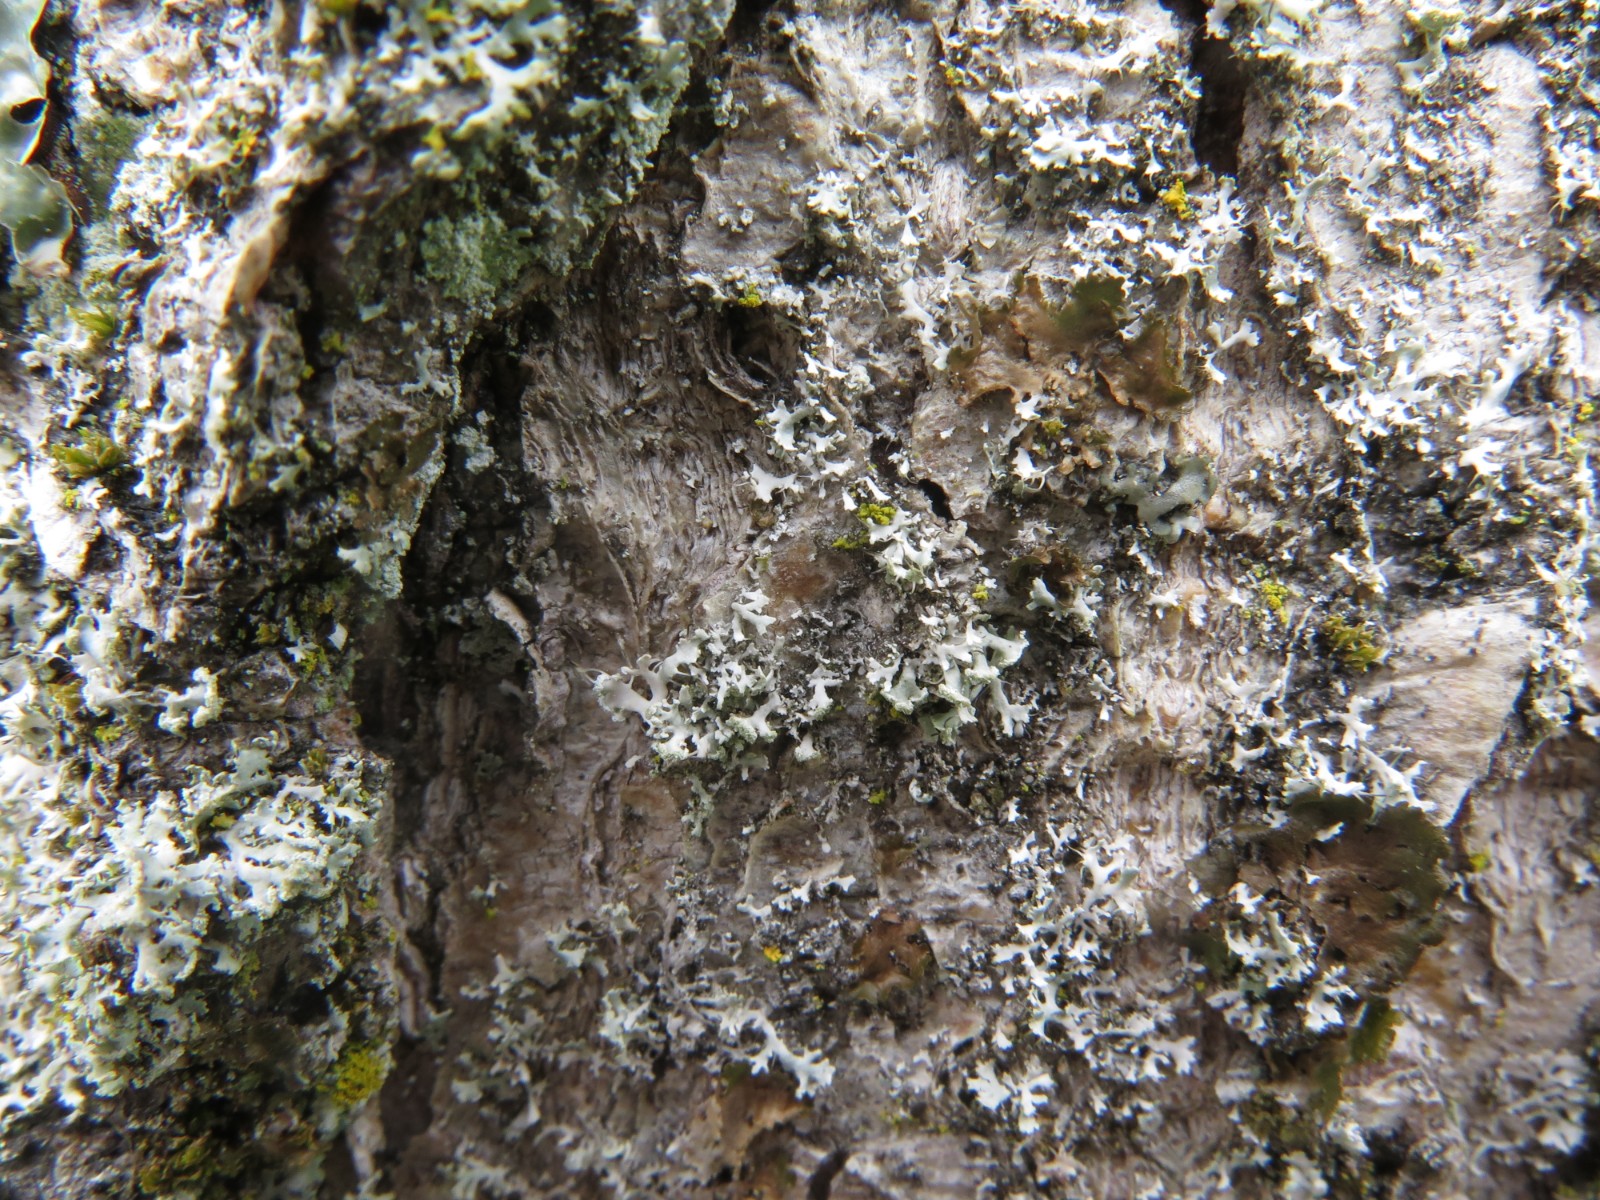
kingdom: Fungi
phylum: Ascomycota
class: Lecanoromycetes
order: Caliciales
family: Physciaceae
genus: Physcia
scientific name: Physcia tenella
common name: spæd rosetlav
